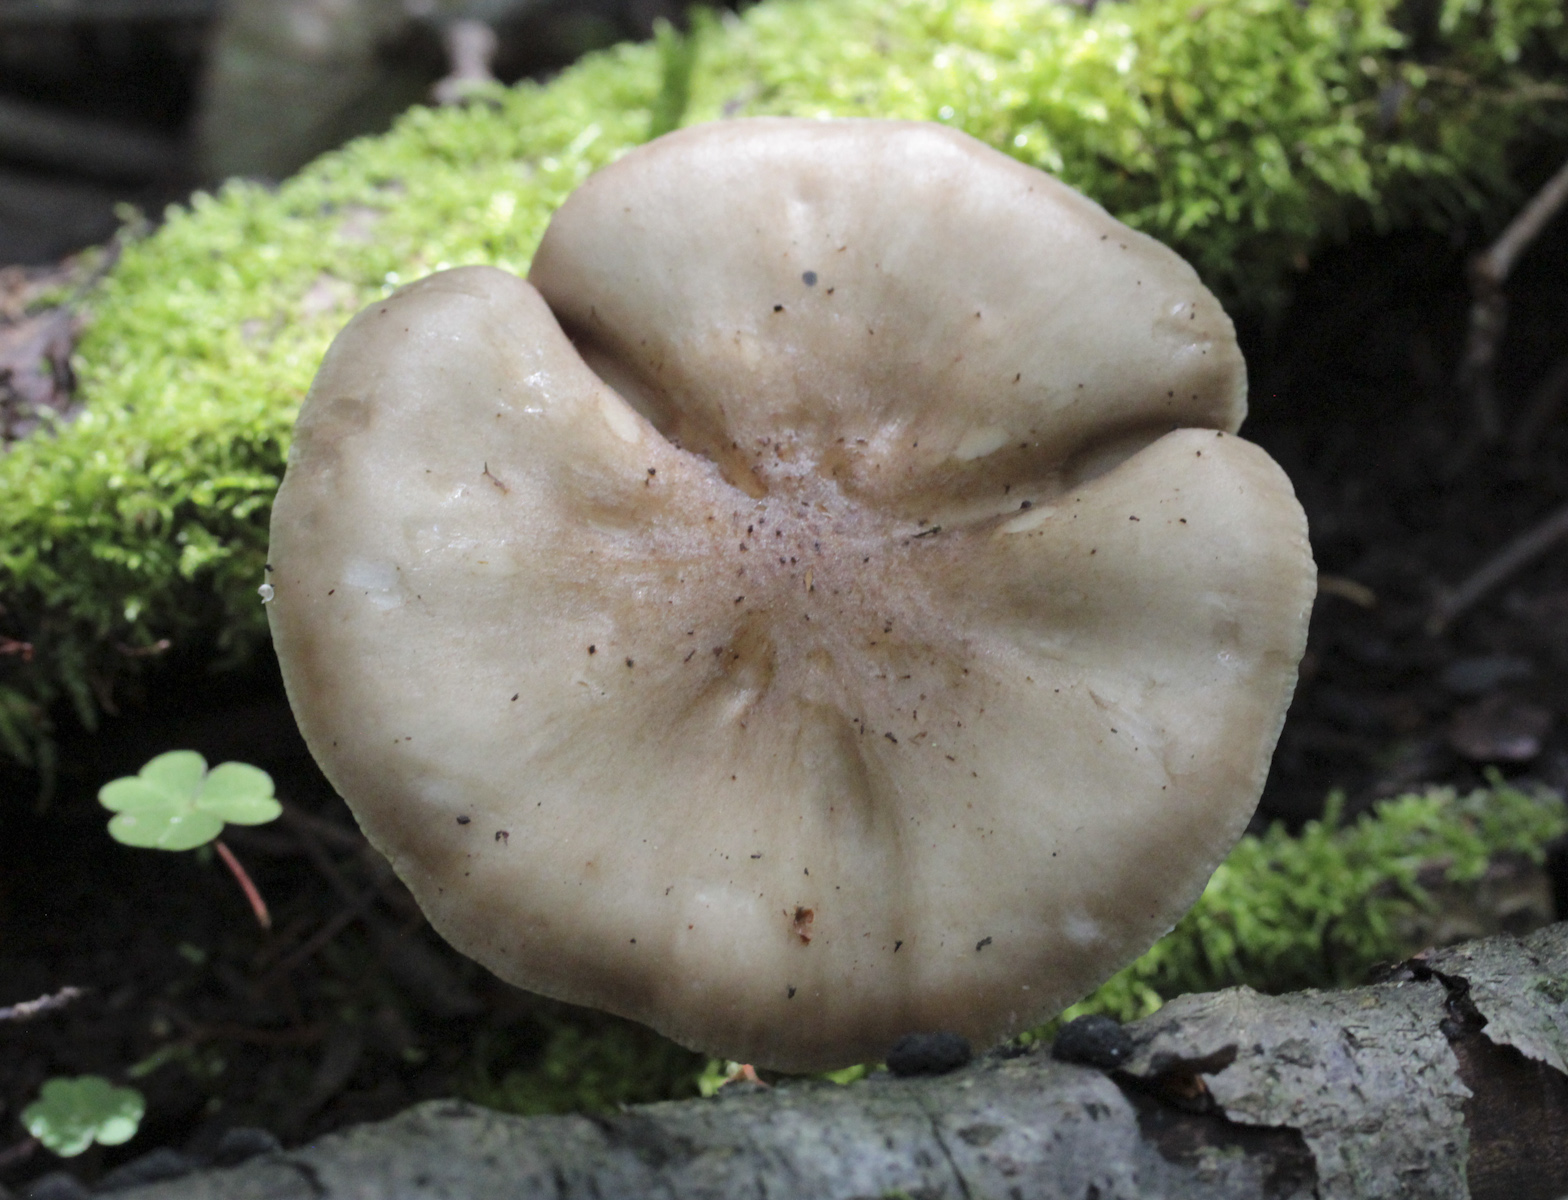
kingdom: Fungi
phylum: Basidiomycota
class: Agaricomycetes
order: Agaricales
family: Pluteaceae
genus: Pluteus
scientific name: Pluteus cervinus
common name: Deer shield
